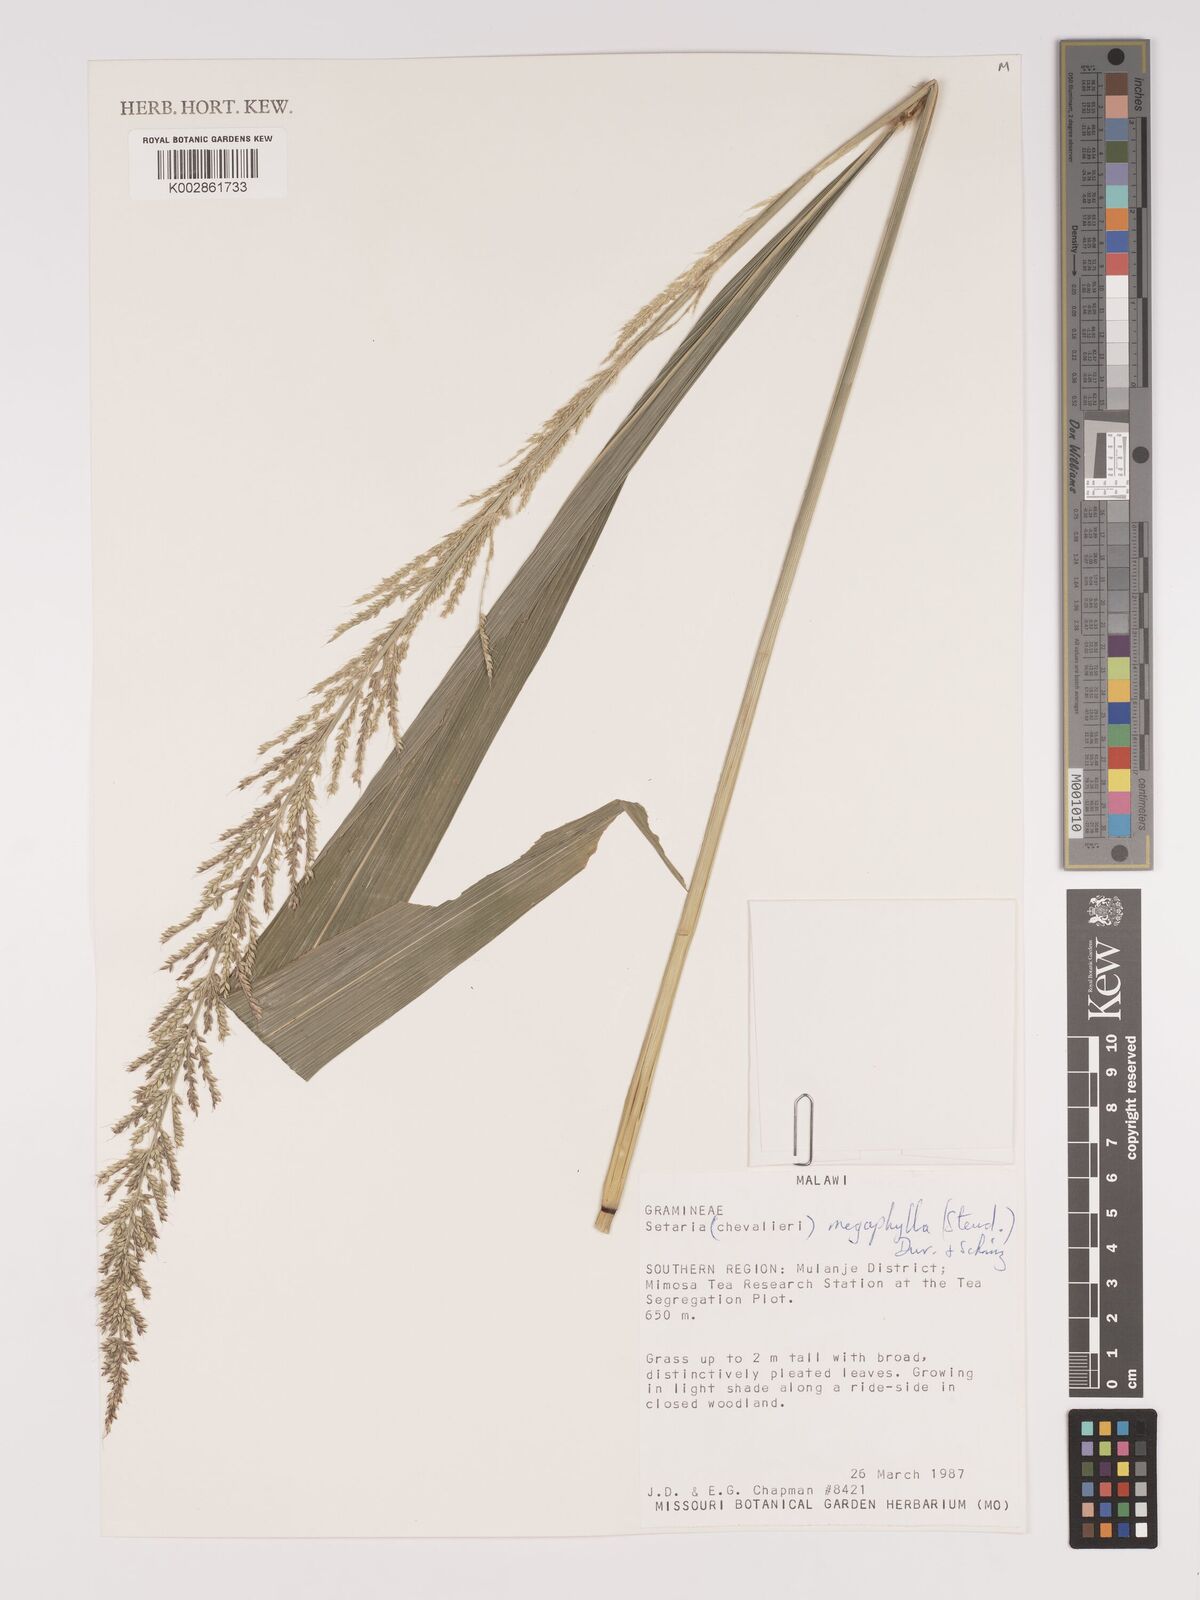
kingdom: Plantae
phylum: Tracheophyta
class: Liliopsida
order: Poales
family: Poaceae
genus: Setaria
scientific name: Setaria megaphylla
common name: Bigleaf bristlegrass
